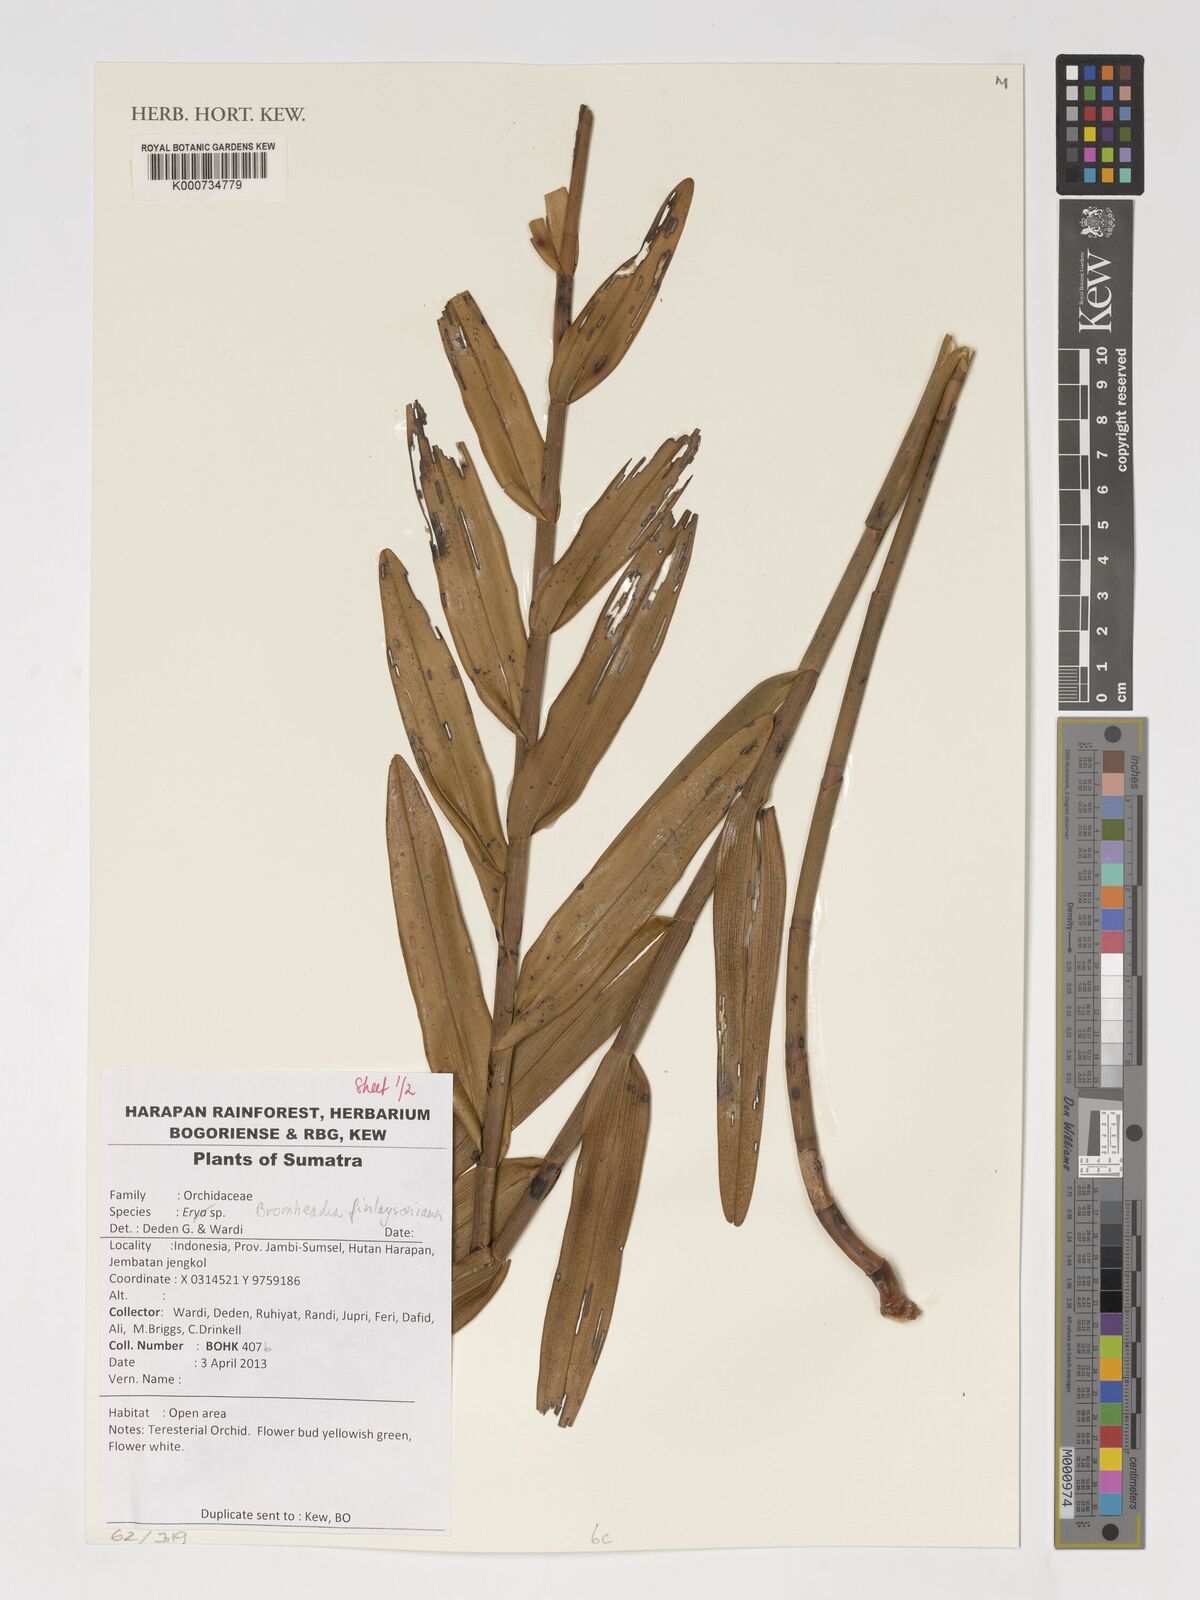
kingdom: Plantae
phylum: Tracheophyta
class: Liliopsida
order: Asparagales
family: Orchidaceae
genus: Bromheadia
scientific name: Bromheadia finlaysoniana
